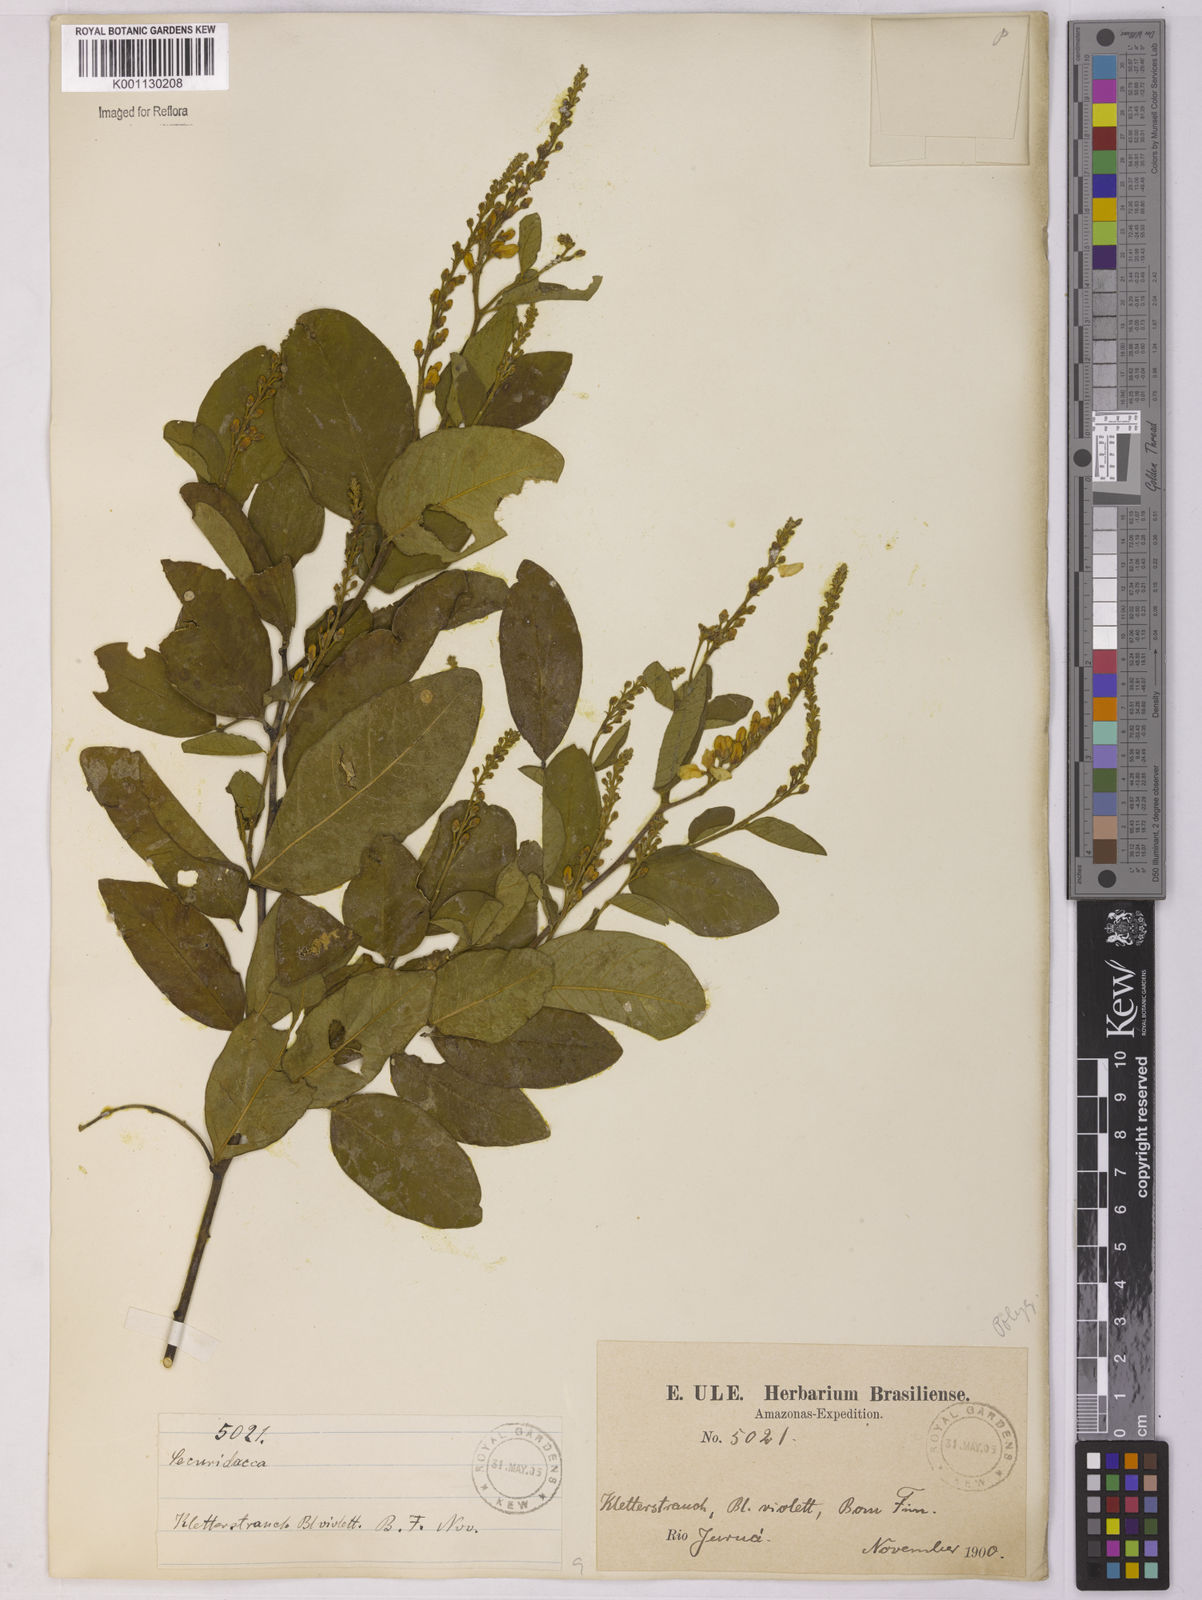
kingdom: Plantae
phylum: Tracheophyta
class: Magnoliopsida
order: Fabales
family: Polygalaceae
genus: Securidaca
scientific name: Securidaca
